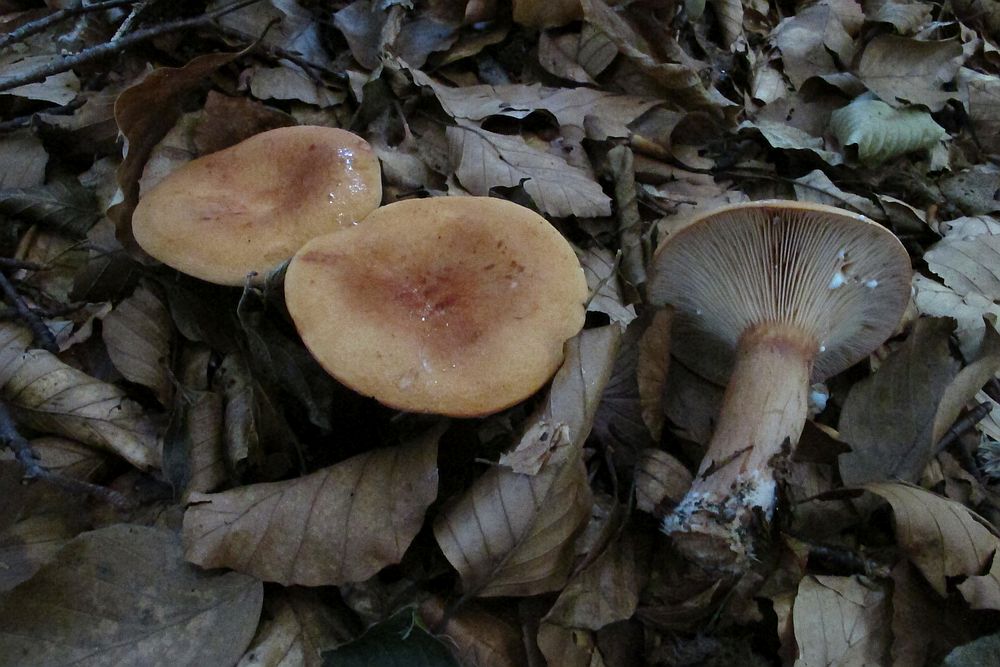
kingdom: Fungi
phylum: Basidiomycota
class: Agaricomycetes
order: Russulales
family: Russulaceae
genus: Lactarius
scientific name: Lactarius rubrocinctus
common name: halsbånd-mælkehat
